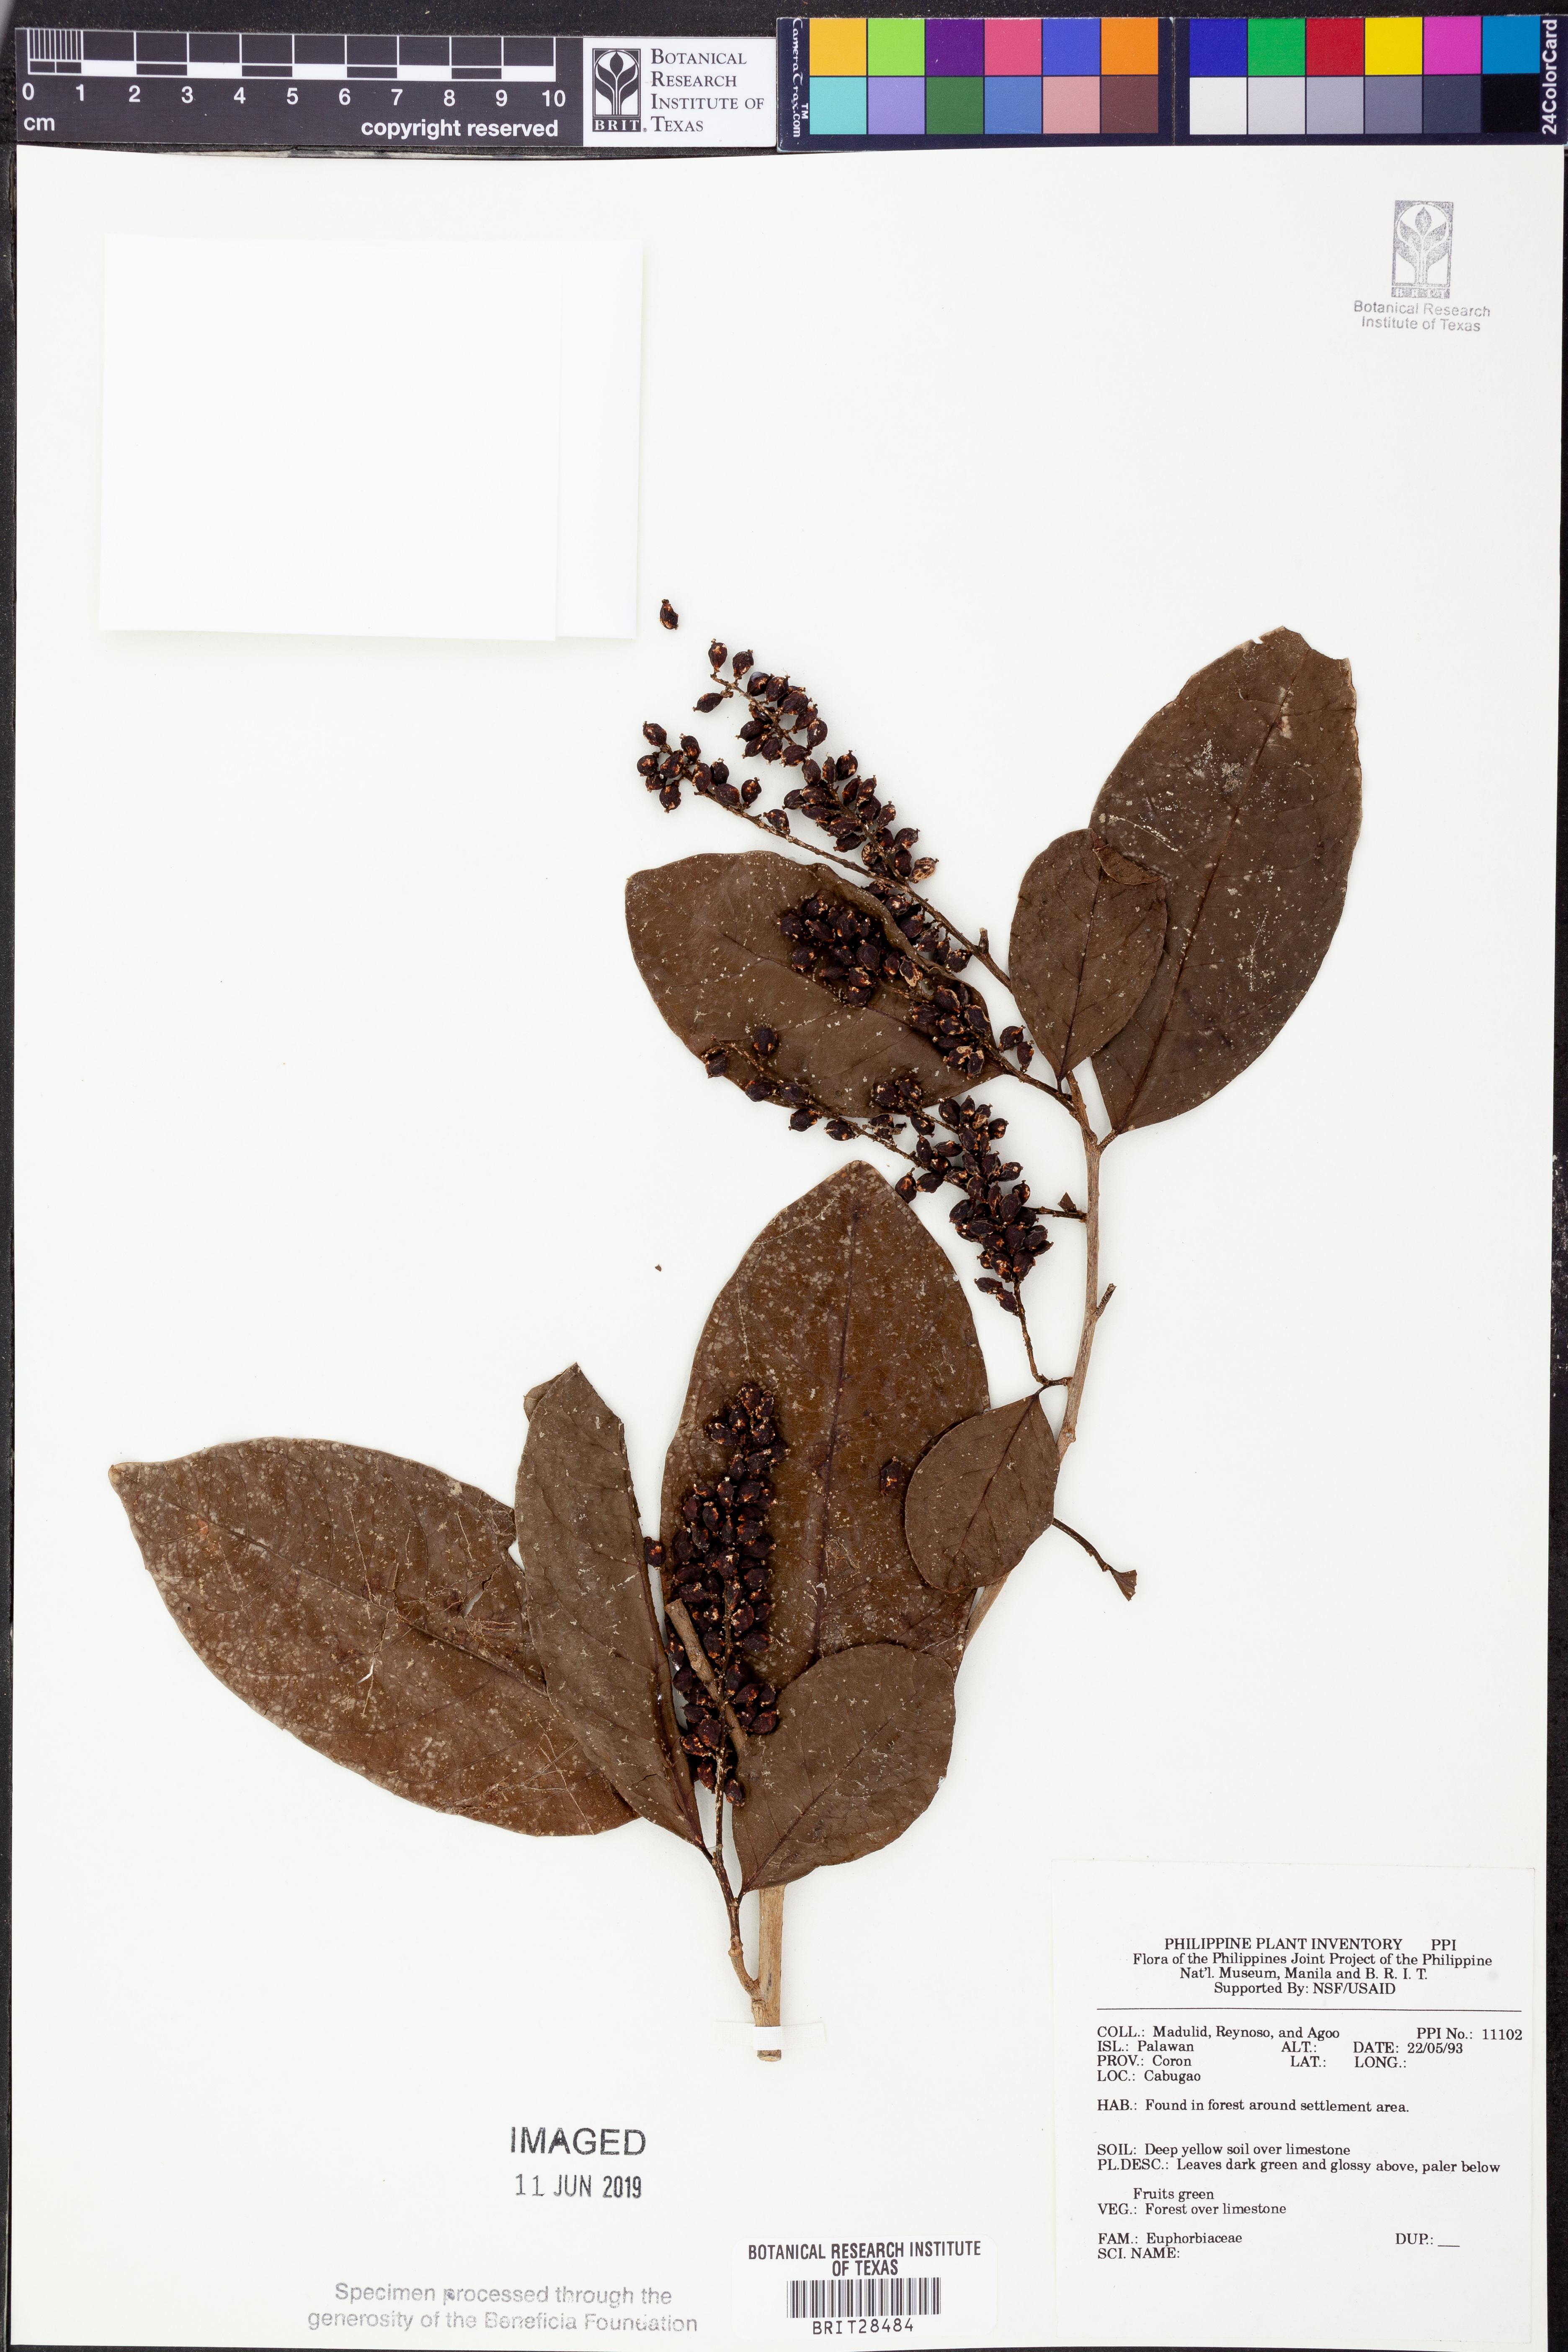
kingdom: Plantae
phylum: Tracheophyta
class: Magnoliopsida
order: Malpighiales
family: Euphorbiaceae
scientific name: Euphorbiaceae
